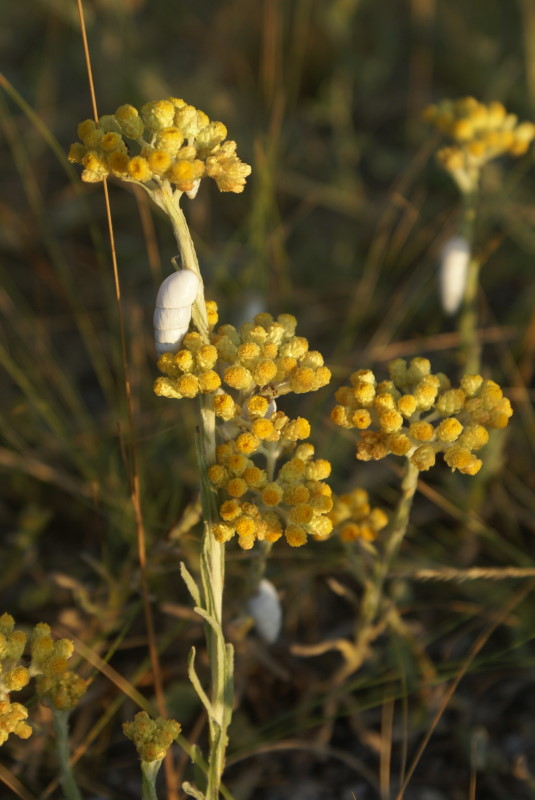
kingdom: Plantae
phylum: Tracheophyta
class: Magnoliopsida
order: Asterales
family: Asteraceae
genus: Helichrysum
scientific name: Helichrysum arenarium
